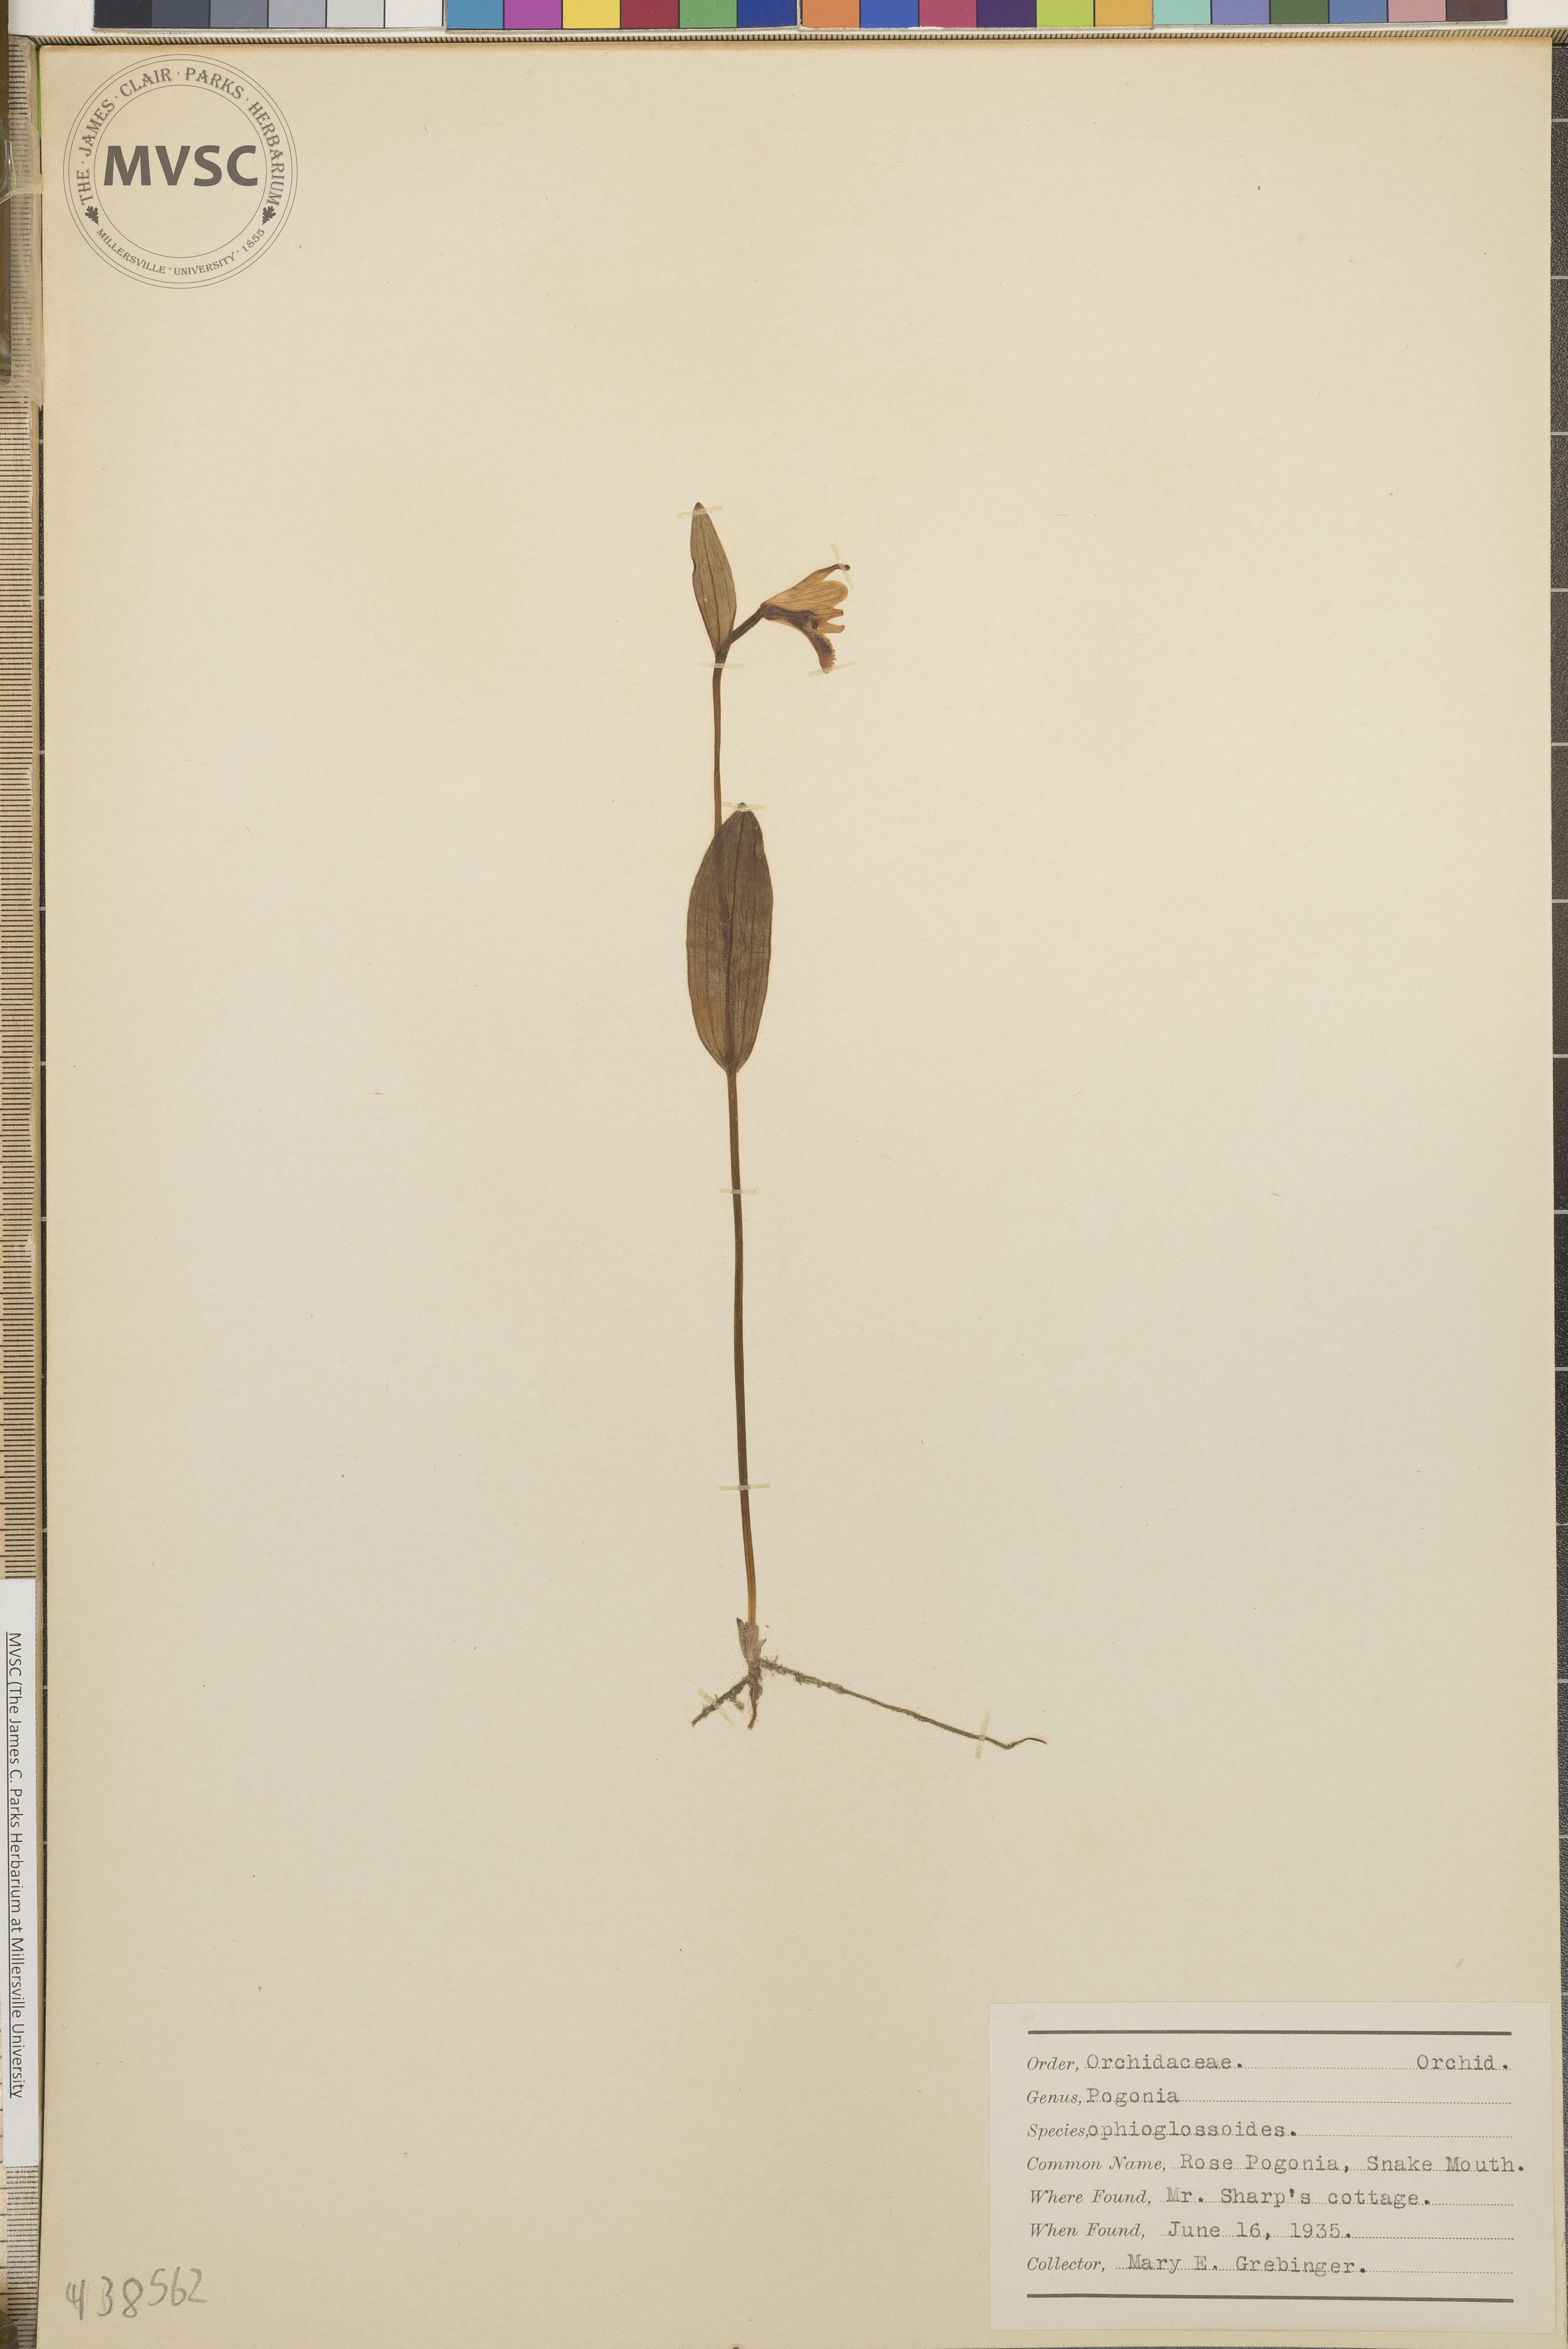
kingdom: Plantae
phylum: Tracheophyta
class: Liliopsida
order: Asparagales
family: Orchidaceae
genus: Pogonia
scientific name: Pogonia ophioglossoides
